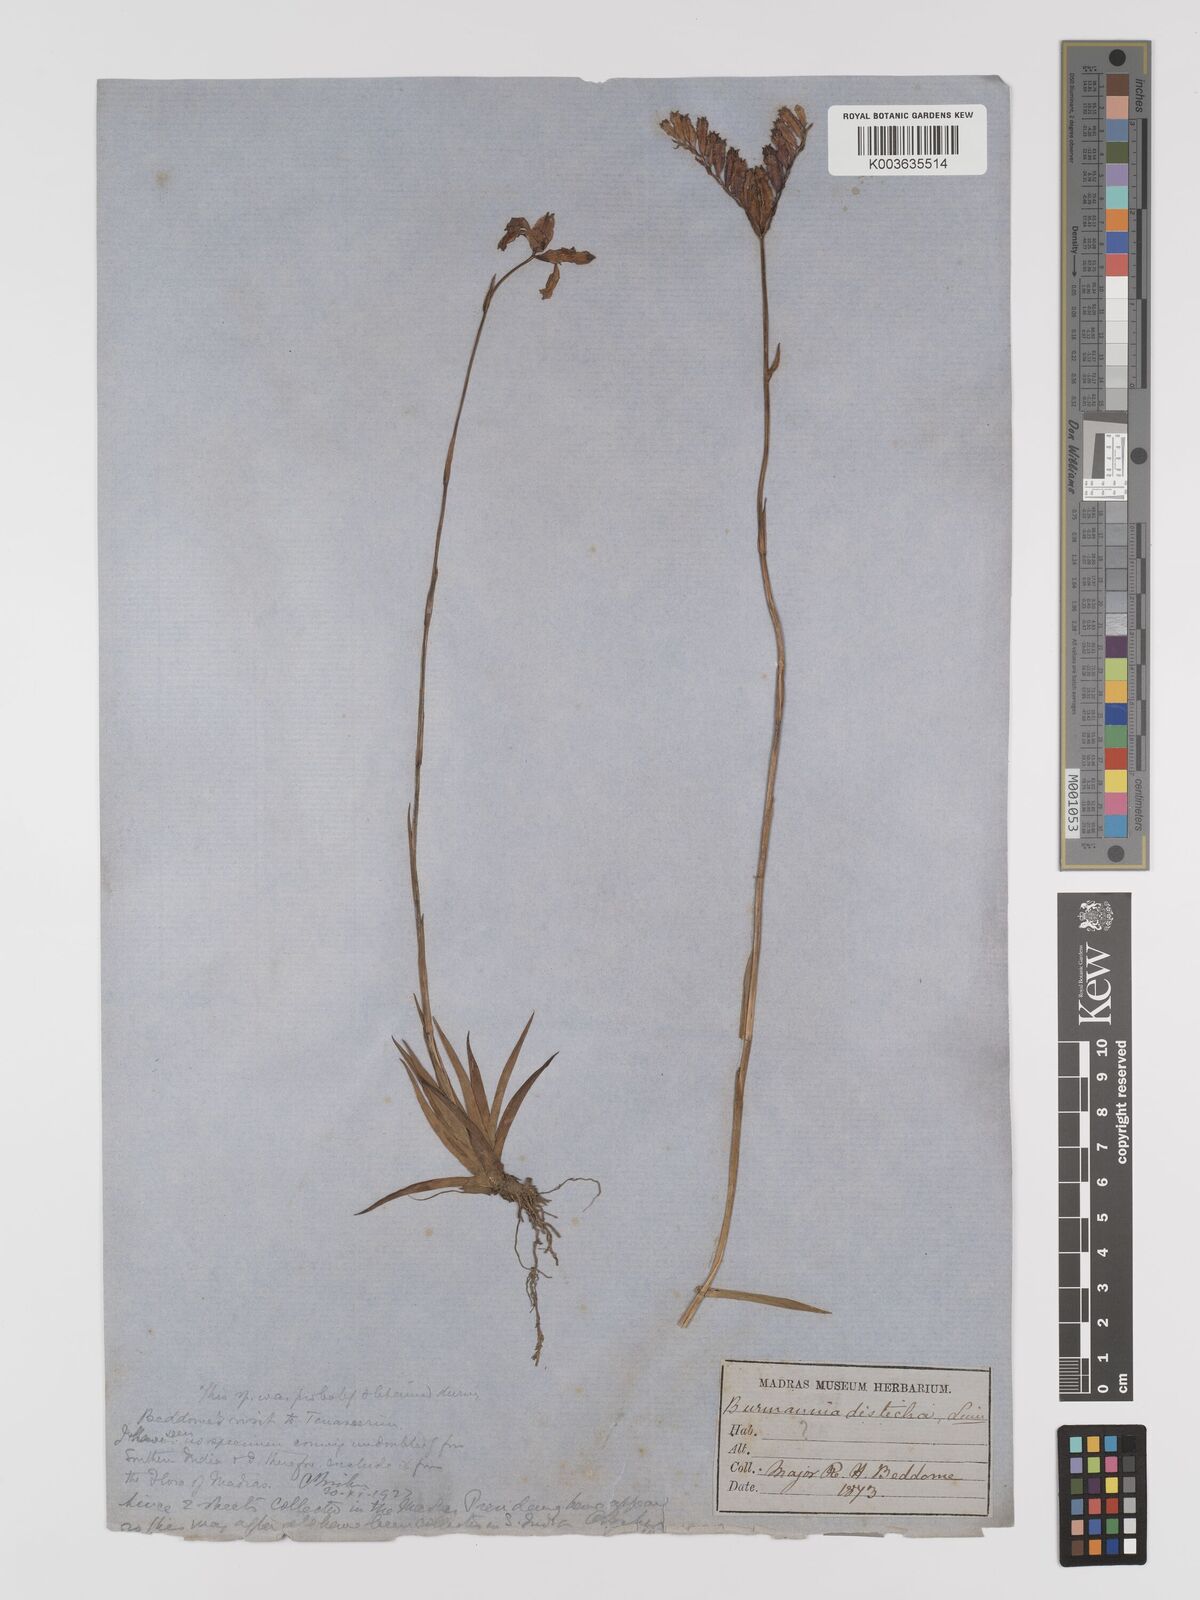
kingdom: Plantae
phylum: Tracheophyta
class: Liliopsida
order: Dioscoreales
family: Burmanniaceae
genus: Burmannia
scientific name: Burmannia disticha
